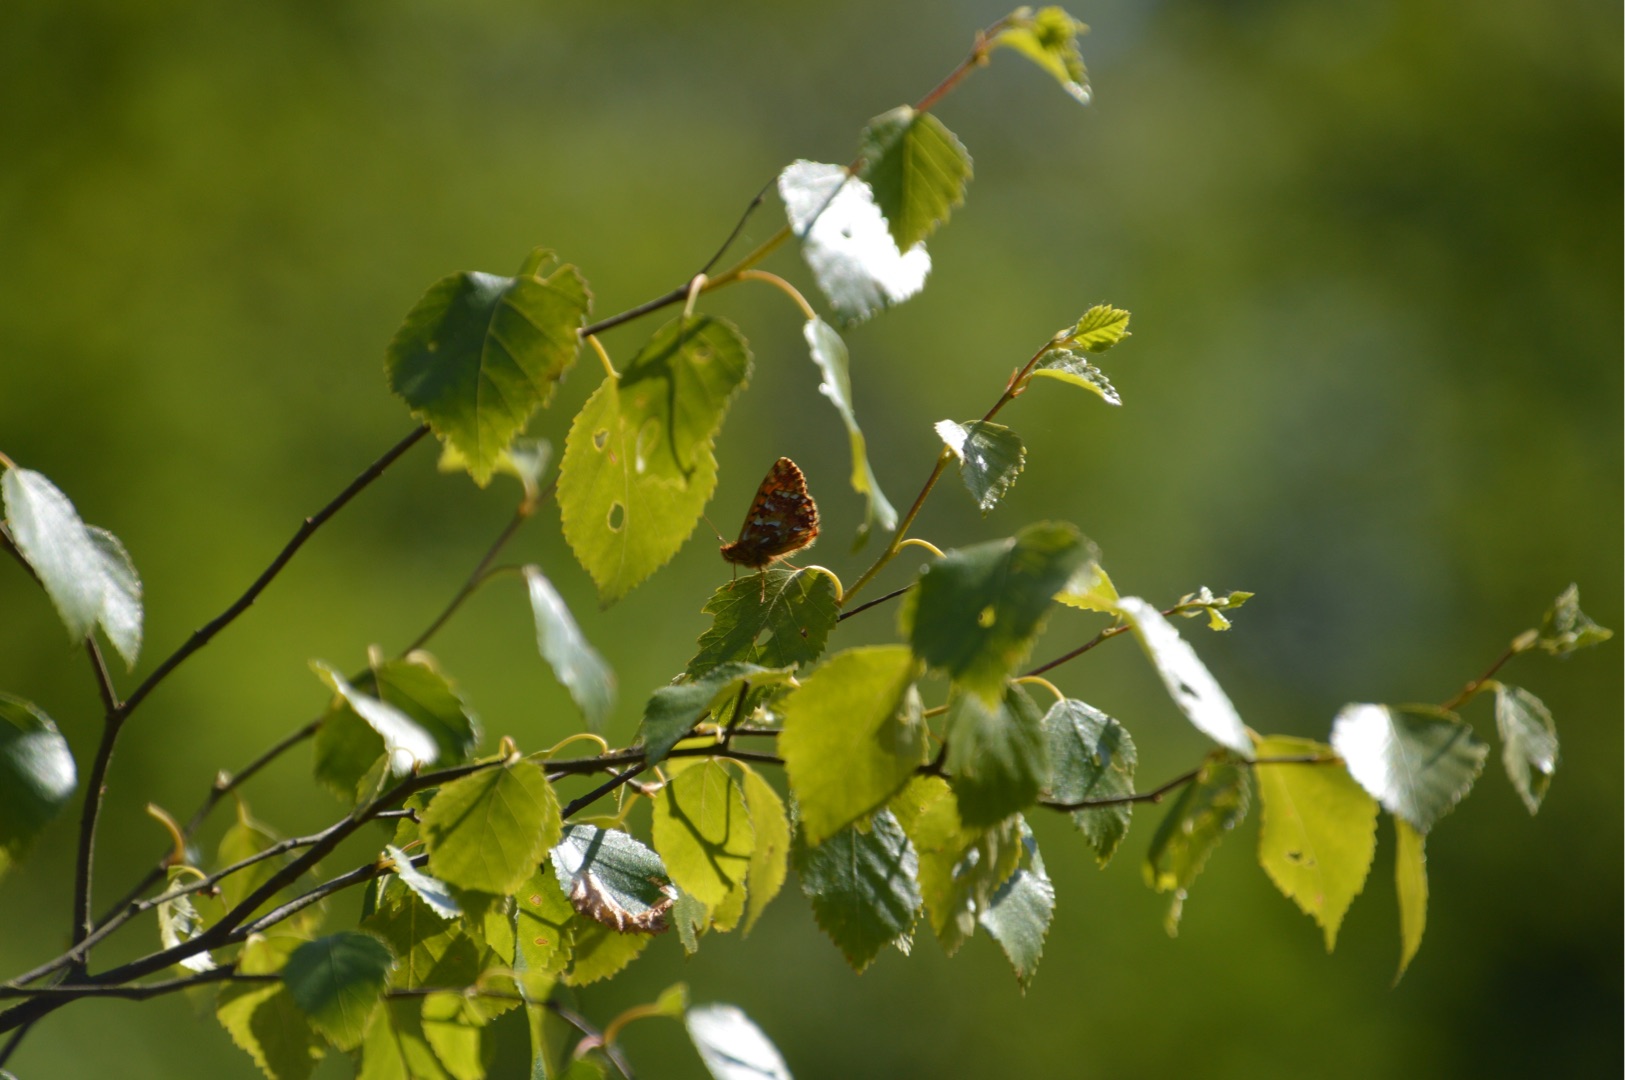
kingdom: Animalia
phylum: Arthropoda
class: Insecta
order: Lepidoptera
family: Nymphalidae
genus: Boloria
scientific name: Boloria aquilonaris
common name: Moseperlemorsommerfugl
